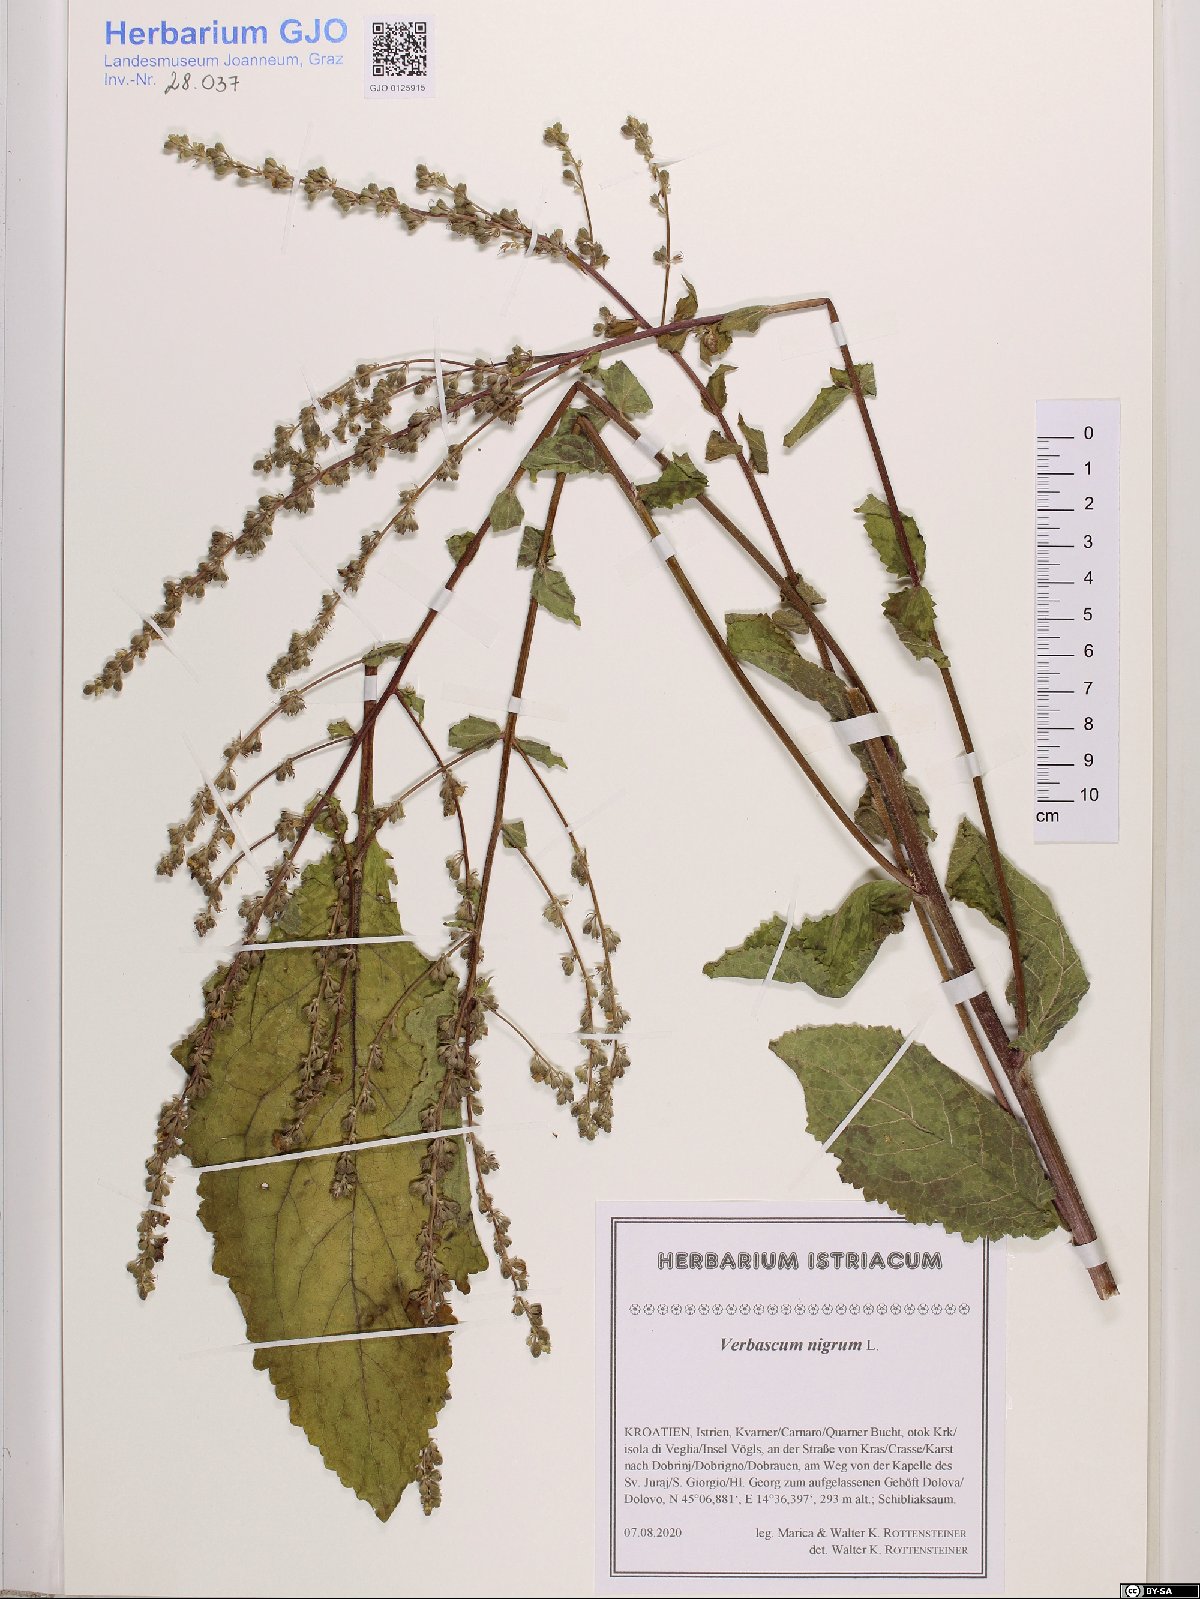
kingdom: Plantae
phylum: Tracheophyta
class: Magnoliopsida
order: Lamiales
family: Scrophulariaceae
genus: Verbascum
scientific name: Verbascum nigrum
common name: Dark mullein
